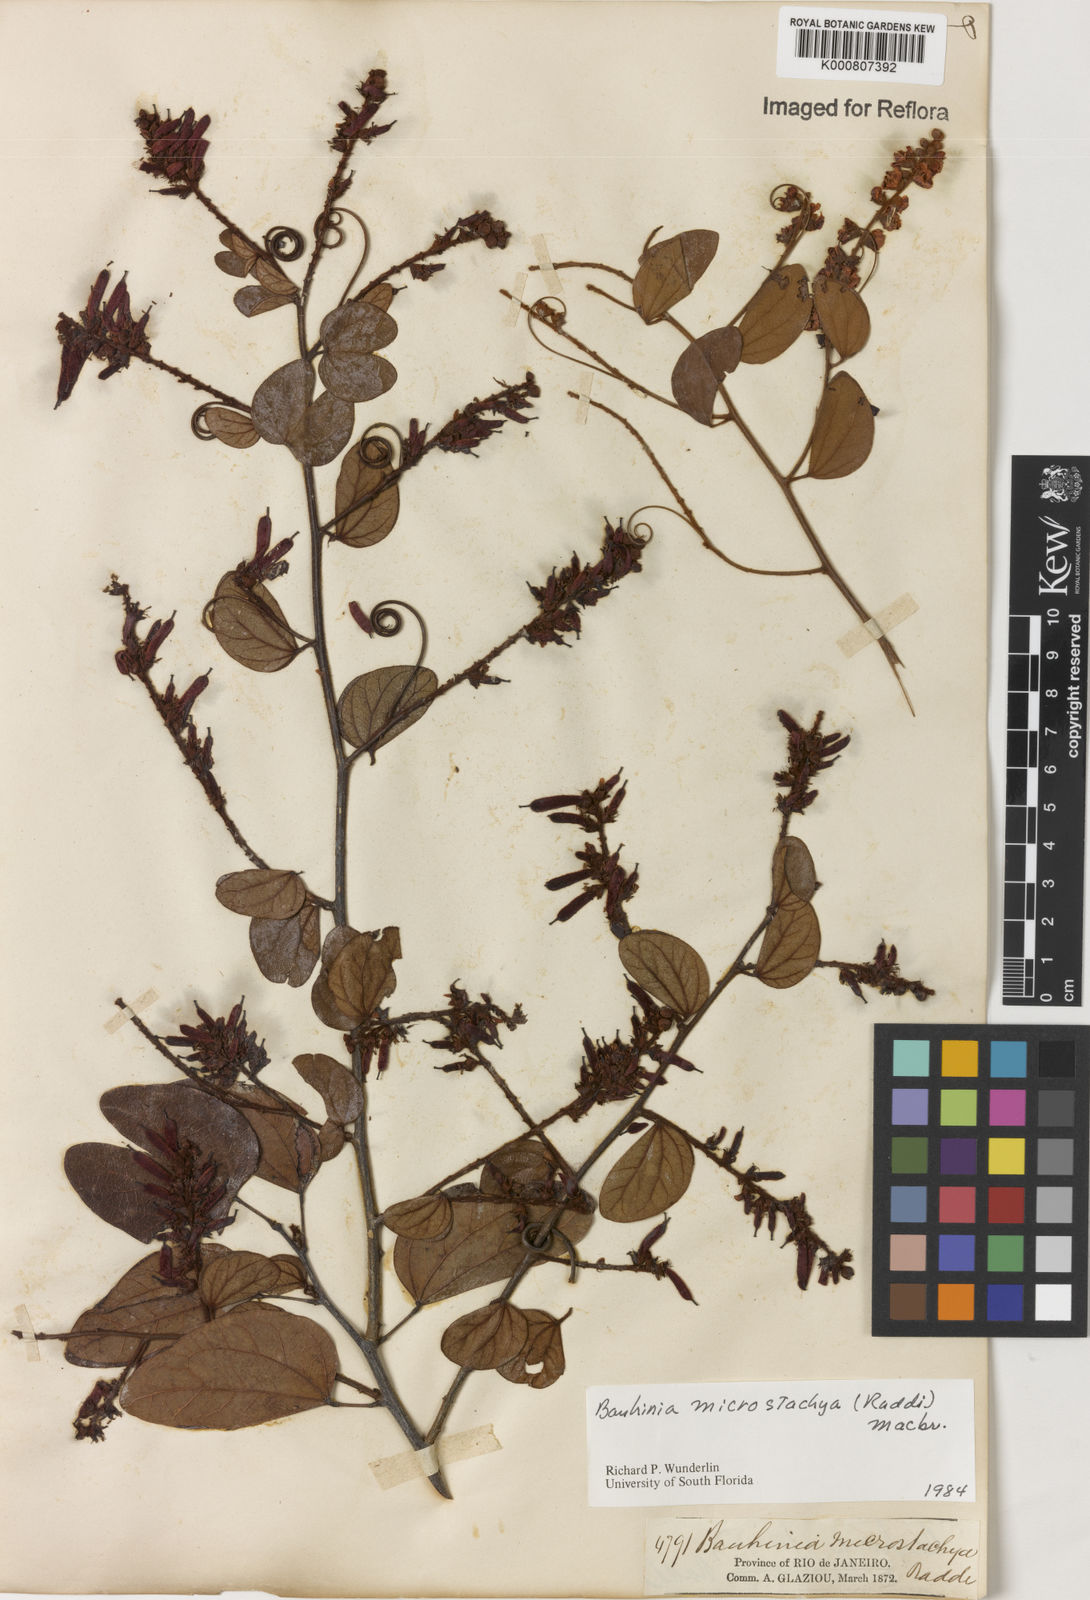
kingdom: Plantae
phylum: Tracheophyta
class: Magnoliopsida
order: Fabales
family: Fabaceae
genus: Schnella
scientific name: Schnella microstachya
